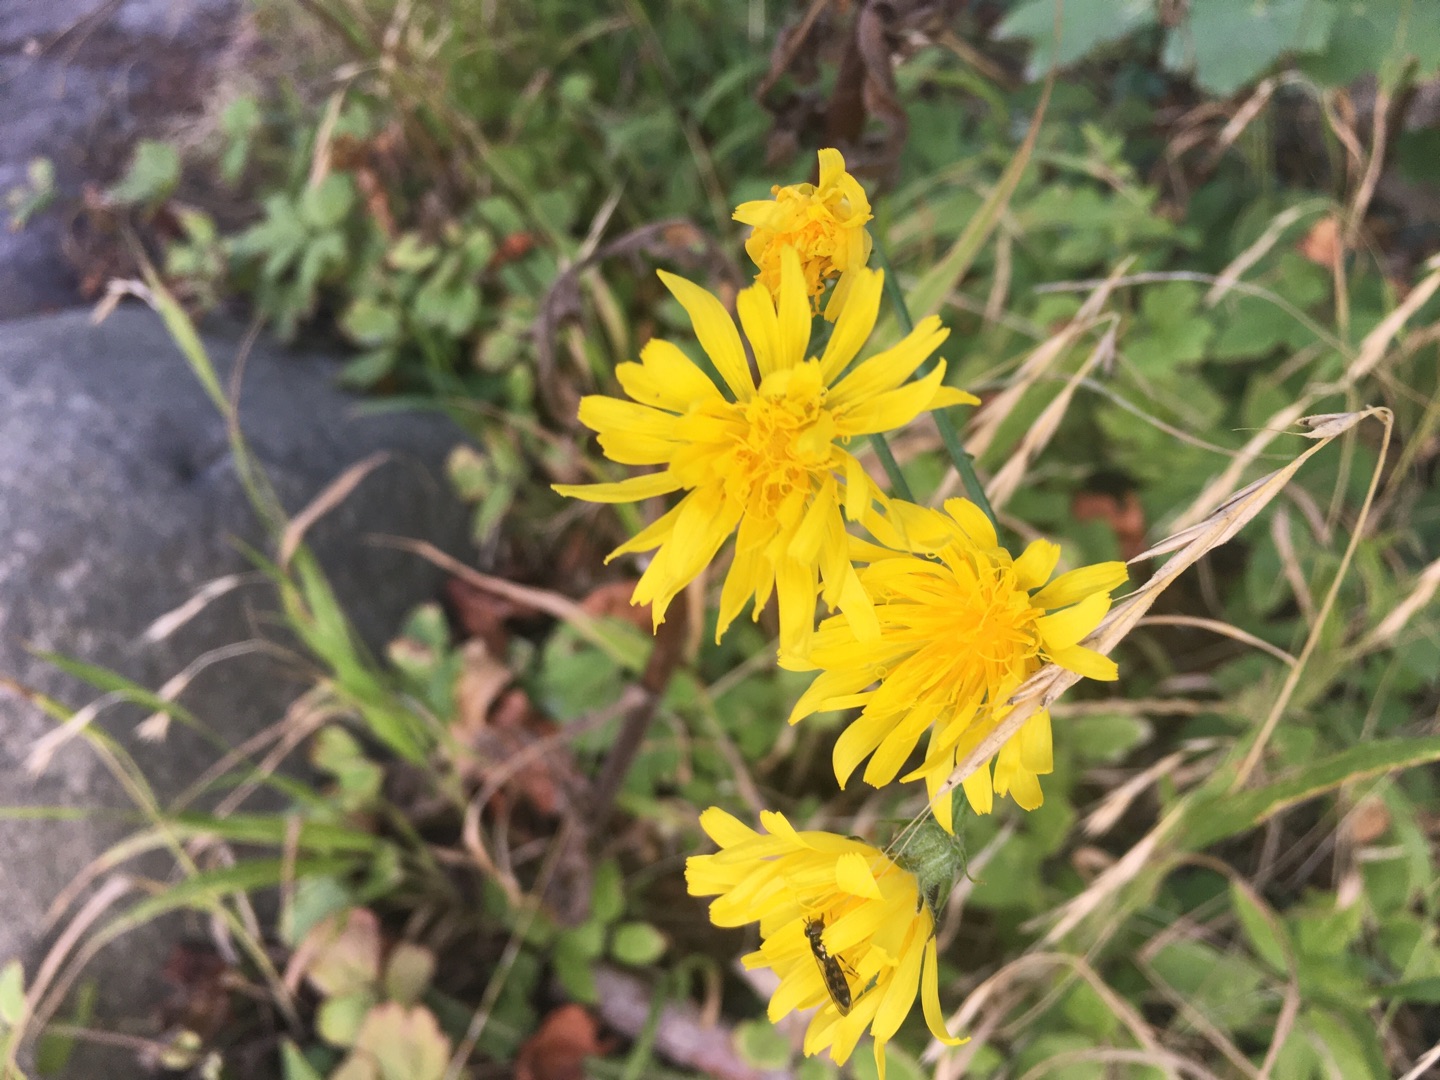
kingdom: Plantae
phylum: Tracheophyta
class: Magnoliopsida
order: Asterales
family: Asteraceae
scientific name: Asteraceae
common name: Kurvblomstfamilien
